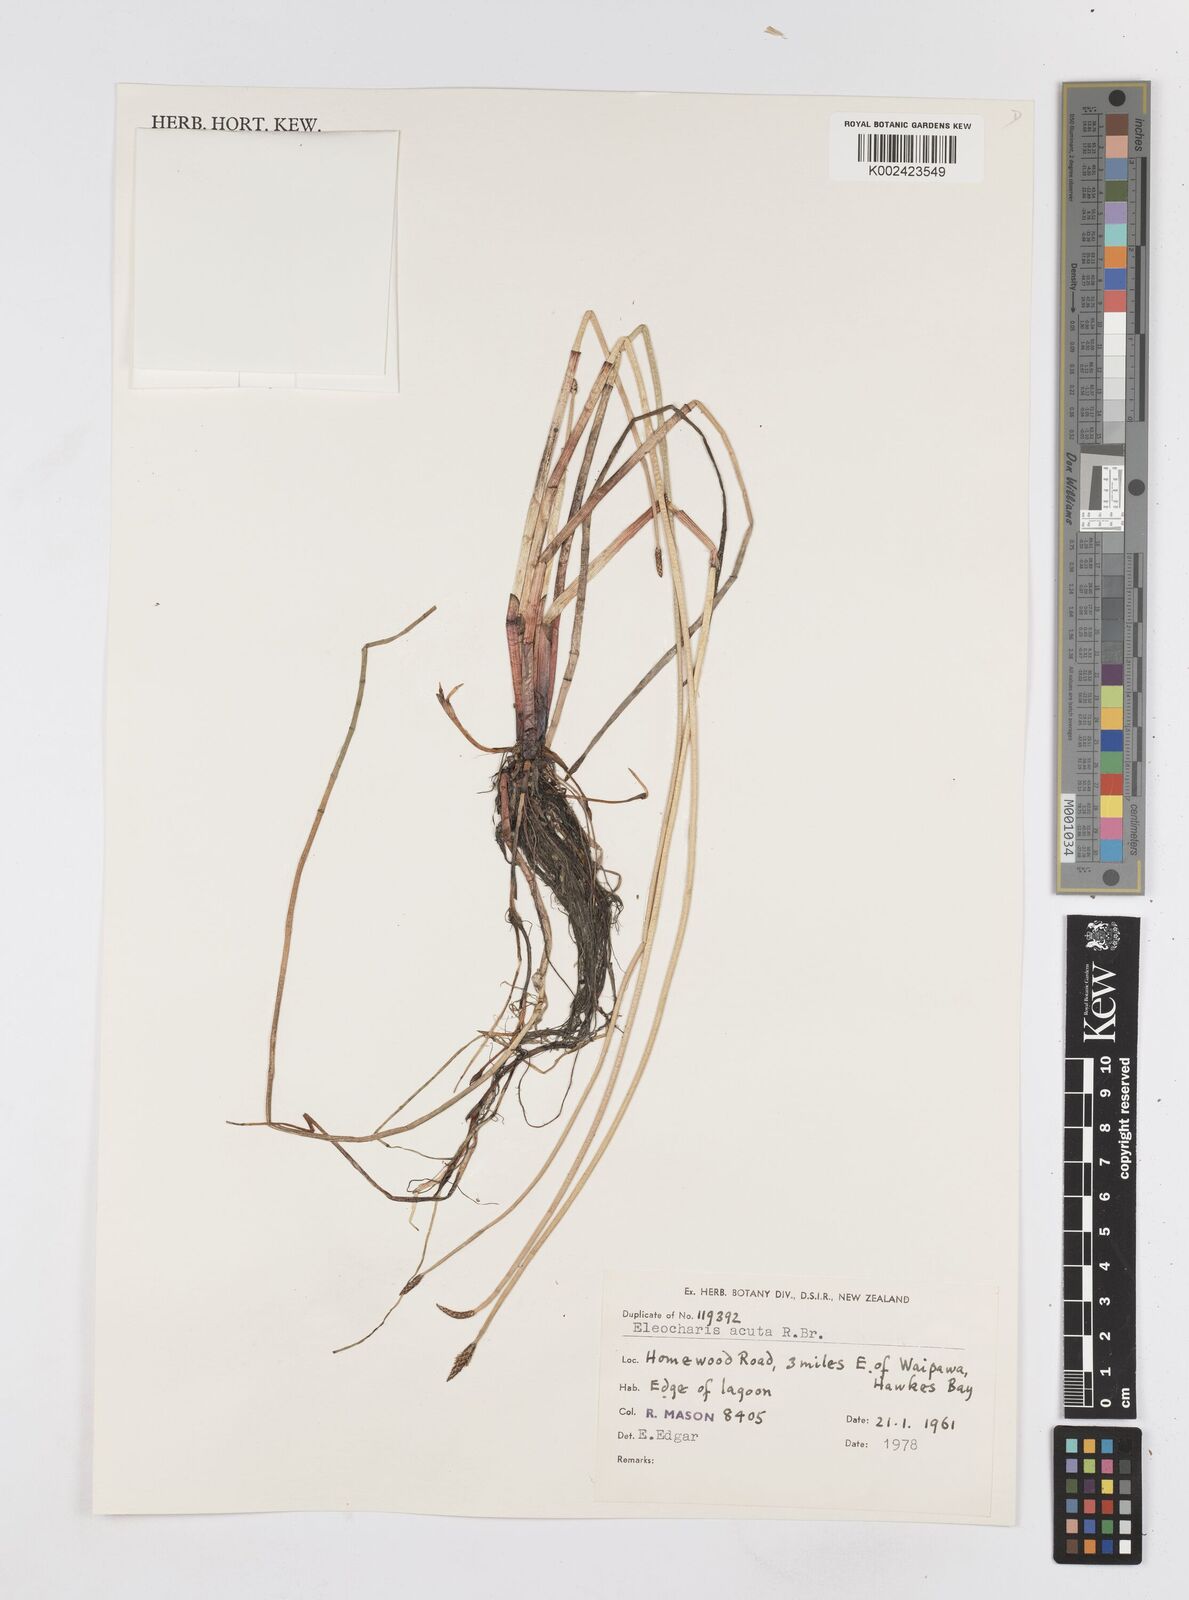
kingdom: Plantae
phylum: Tracheophyta
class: Liliopsida
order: Poales
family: Cyperaceae
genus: Eleocharis
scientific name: Eleocharis acuta
